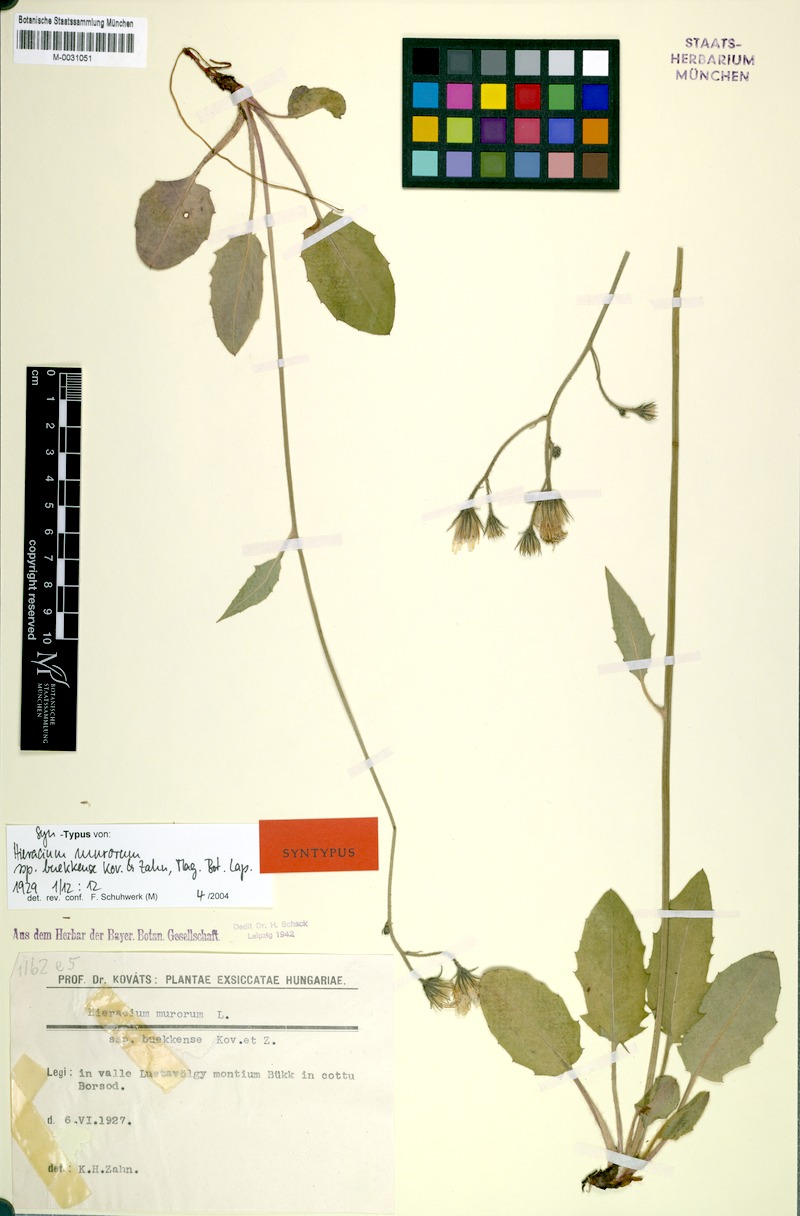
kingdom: Plantae
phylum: Tracheophyta
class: Magnoliopsida
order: Asterales
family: Asteraceae
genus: Hieracium
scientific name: Hieracium murorum
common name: Wall hawkweed
